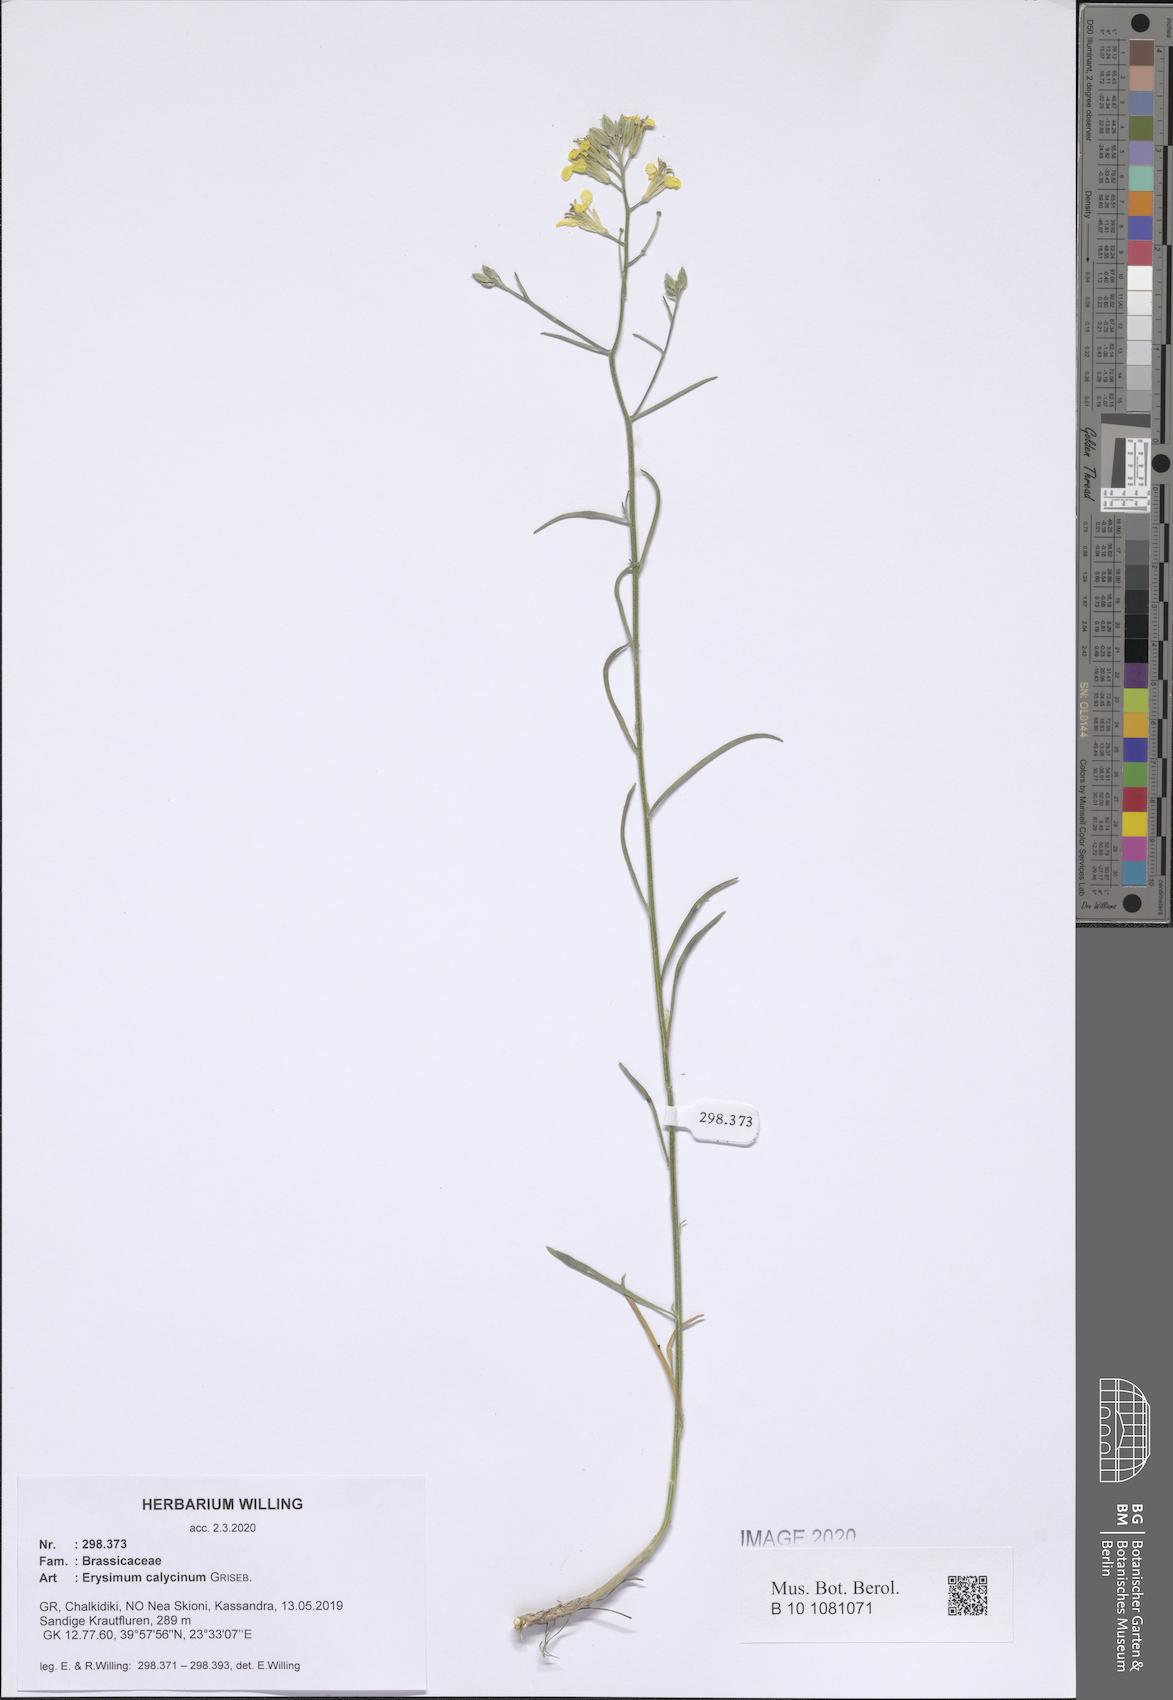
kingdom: Plantae
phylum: Tracheophyta
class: Magnoliopsida
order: Brassicales
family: Brassicaceae
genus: Erysimum
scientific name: Erysimum calycinum
